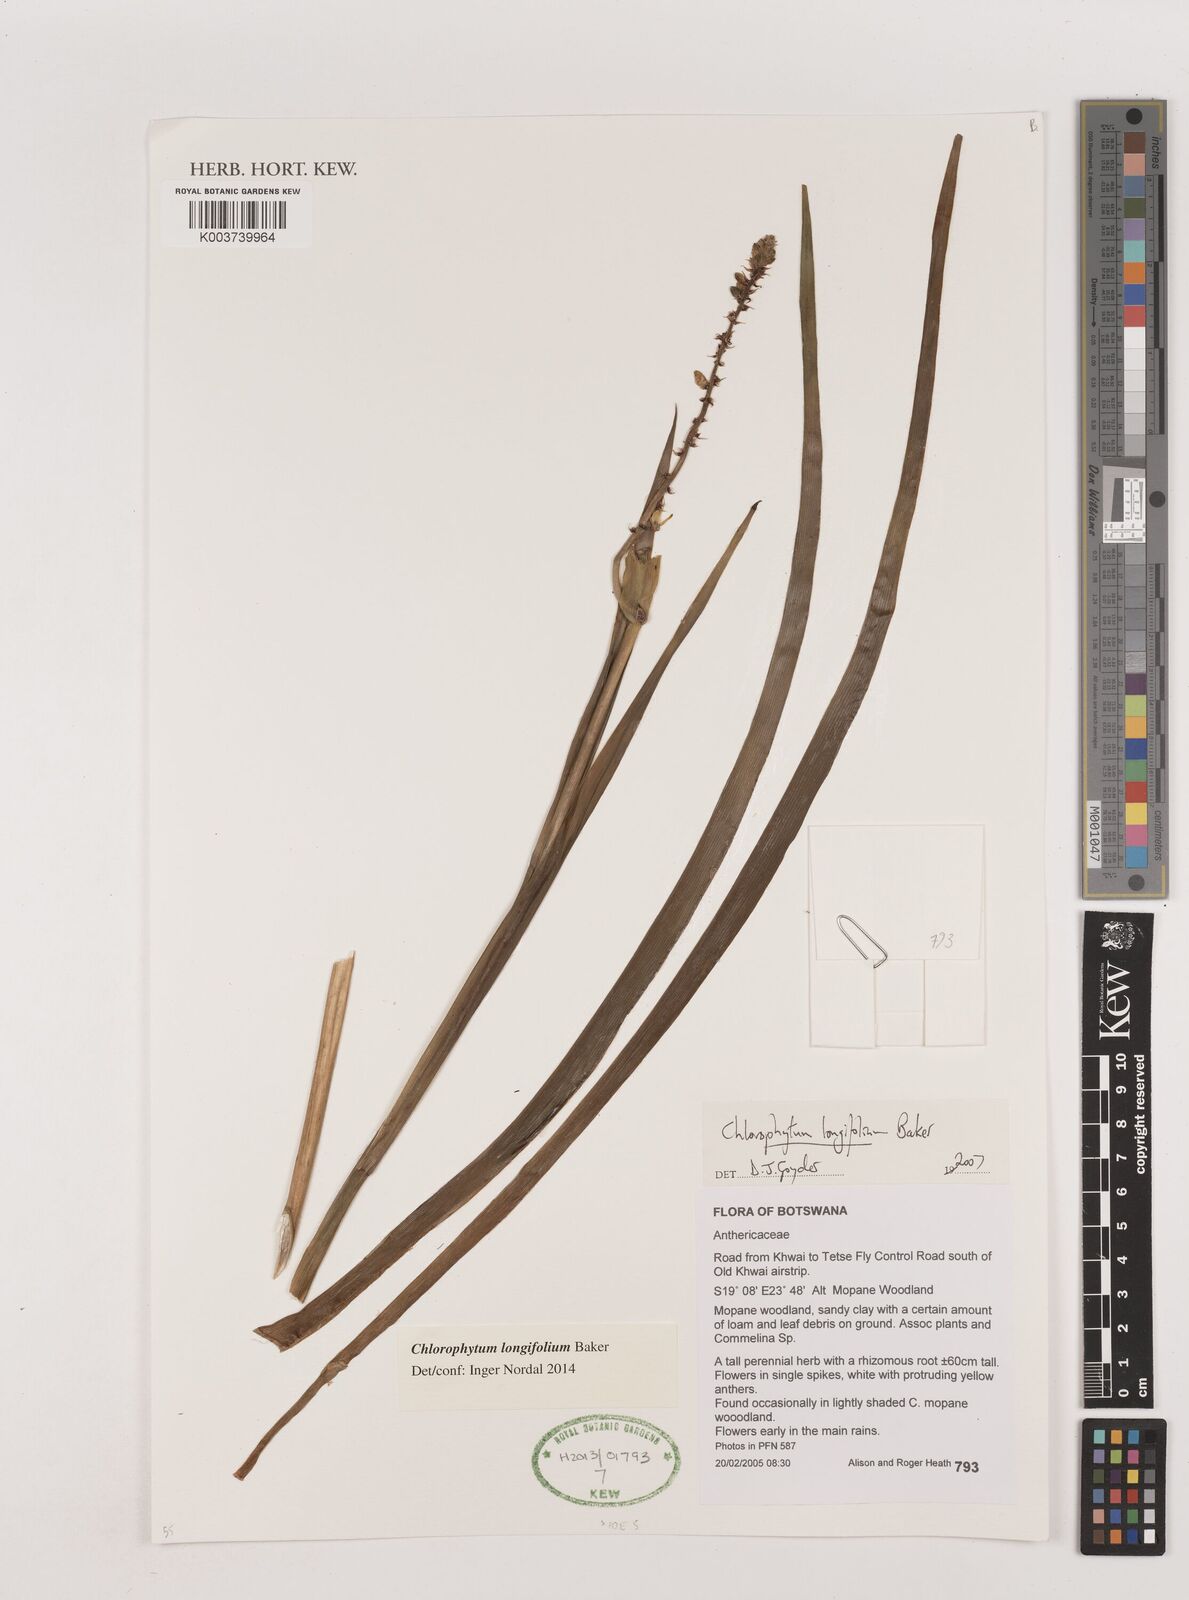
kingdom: Plantae
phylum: Tracheophyta
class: Liliopsida
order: Asparagales
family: Asparagaceae
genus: Chlorophytum
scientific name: Chlorophytum longifolium
